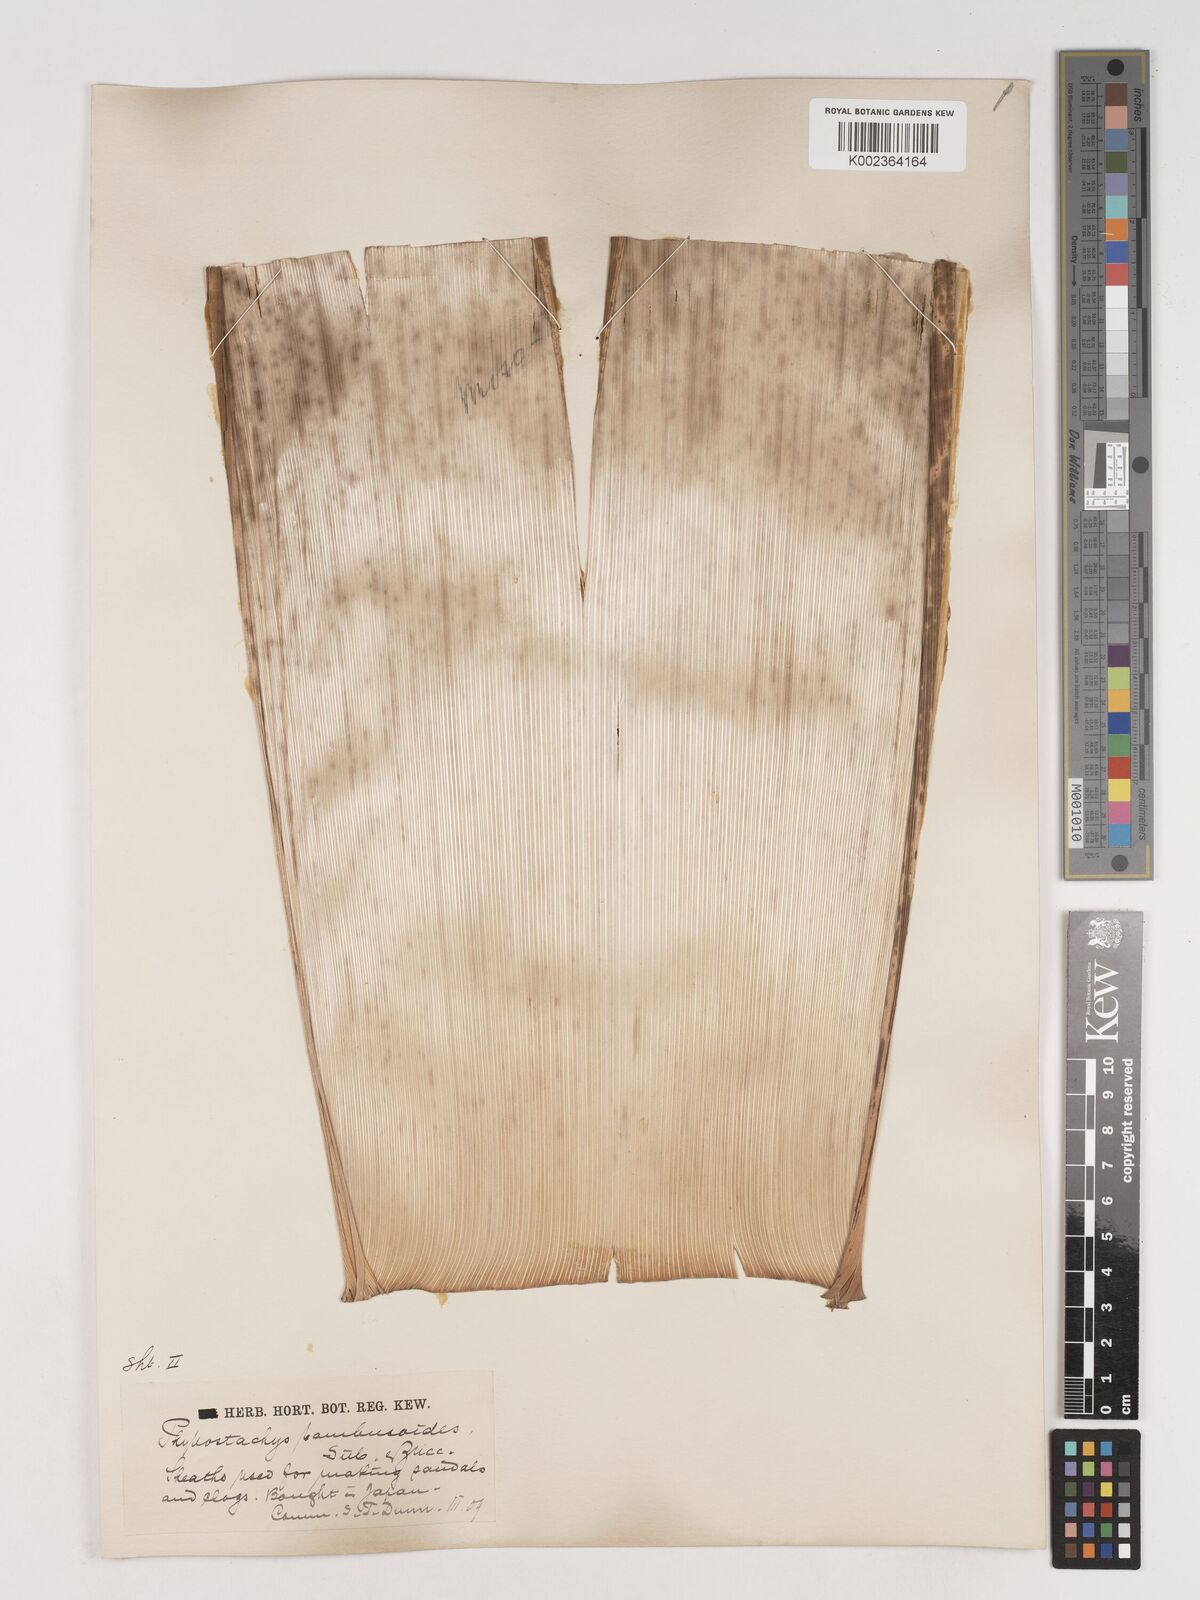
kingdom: Plantae
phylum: Tracheophyta
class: Liliopsida
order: Poales
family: Poaceae
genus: Phyllostachys
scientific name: Phyllostachys reticulata
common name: Bamboo
